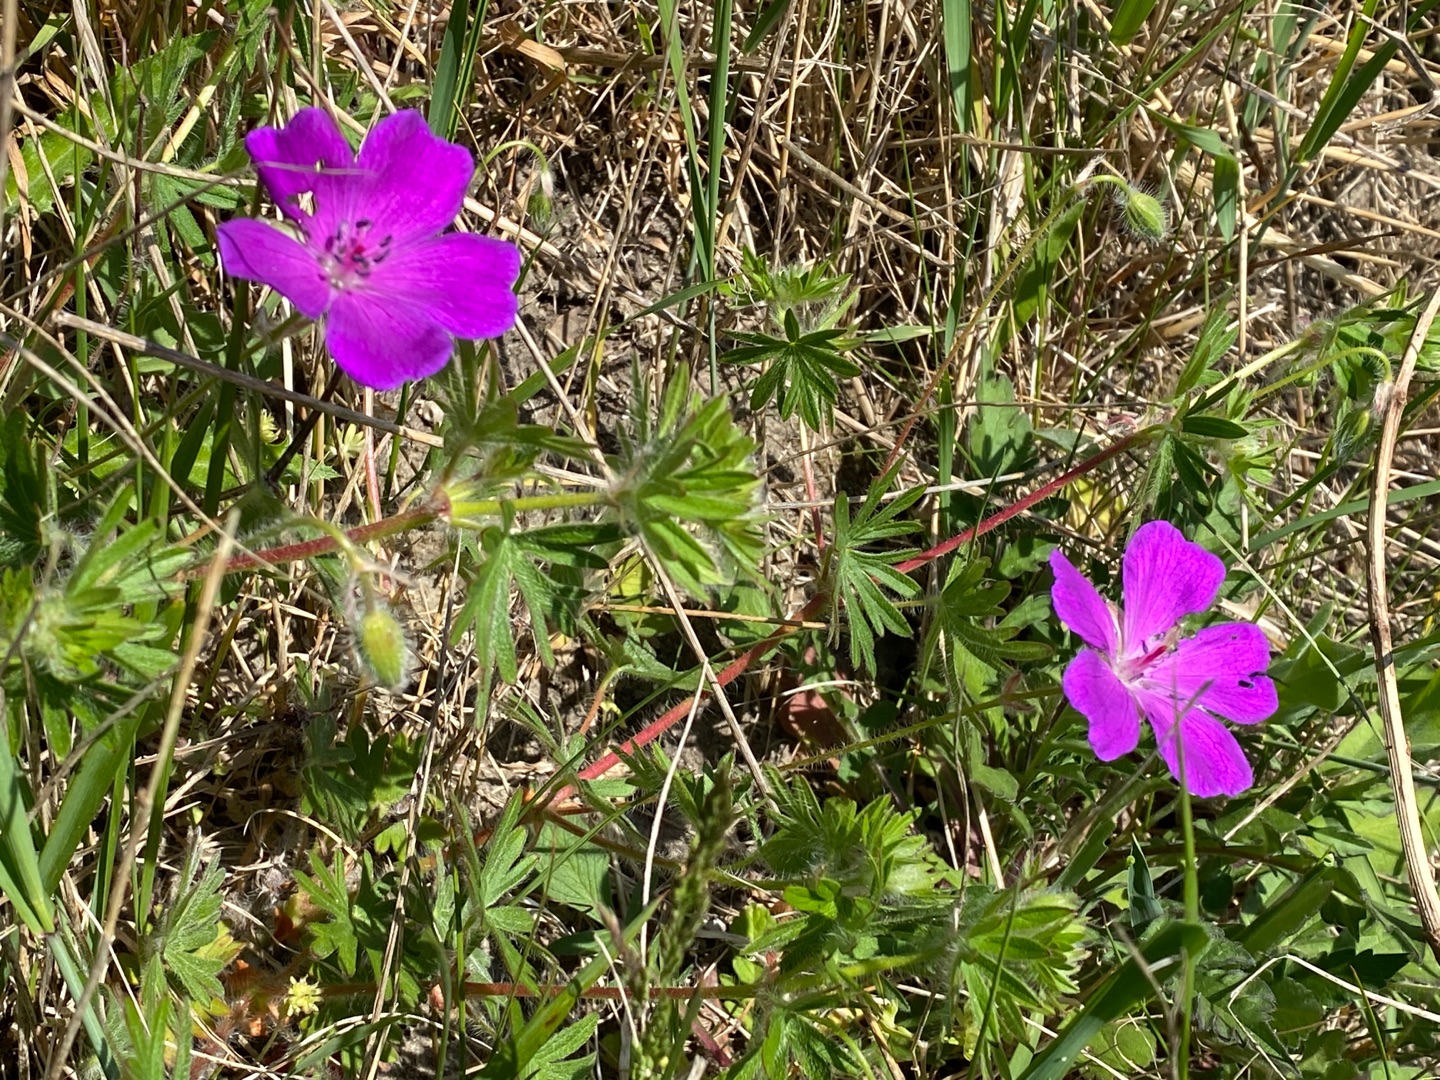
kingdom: Plantae
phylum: Tracheophyta
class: Magnoliopsida
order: Geraniales
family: Geraniaceae
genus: Geranium
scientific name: Geranium sanguineum
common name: Blodrød storkenæb
